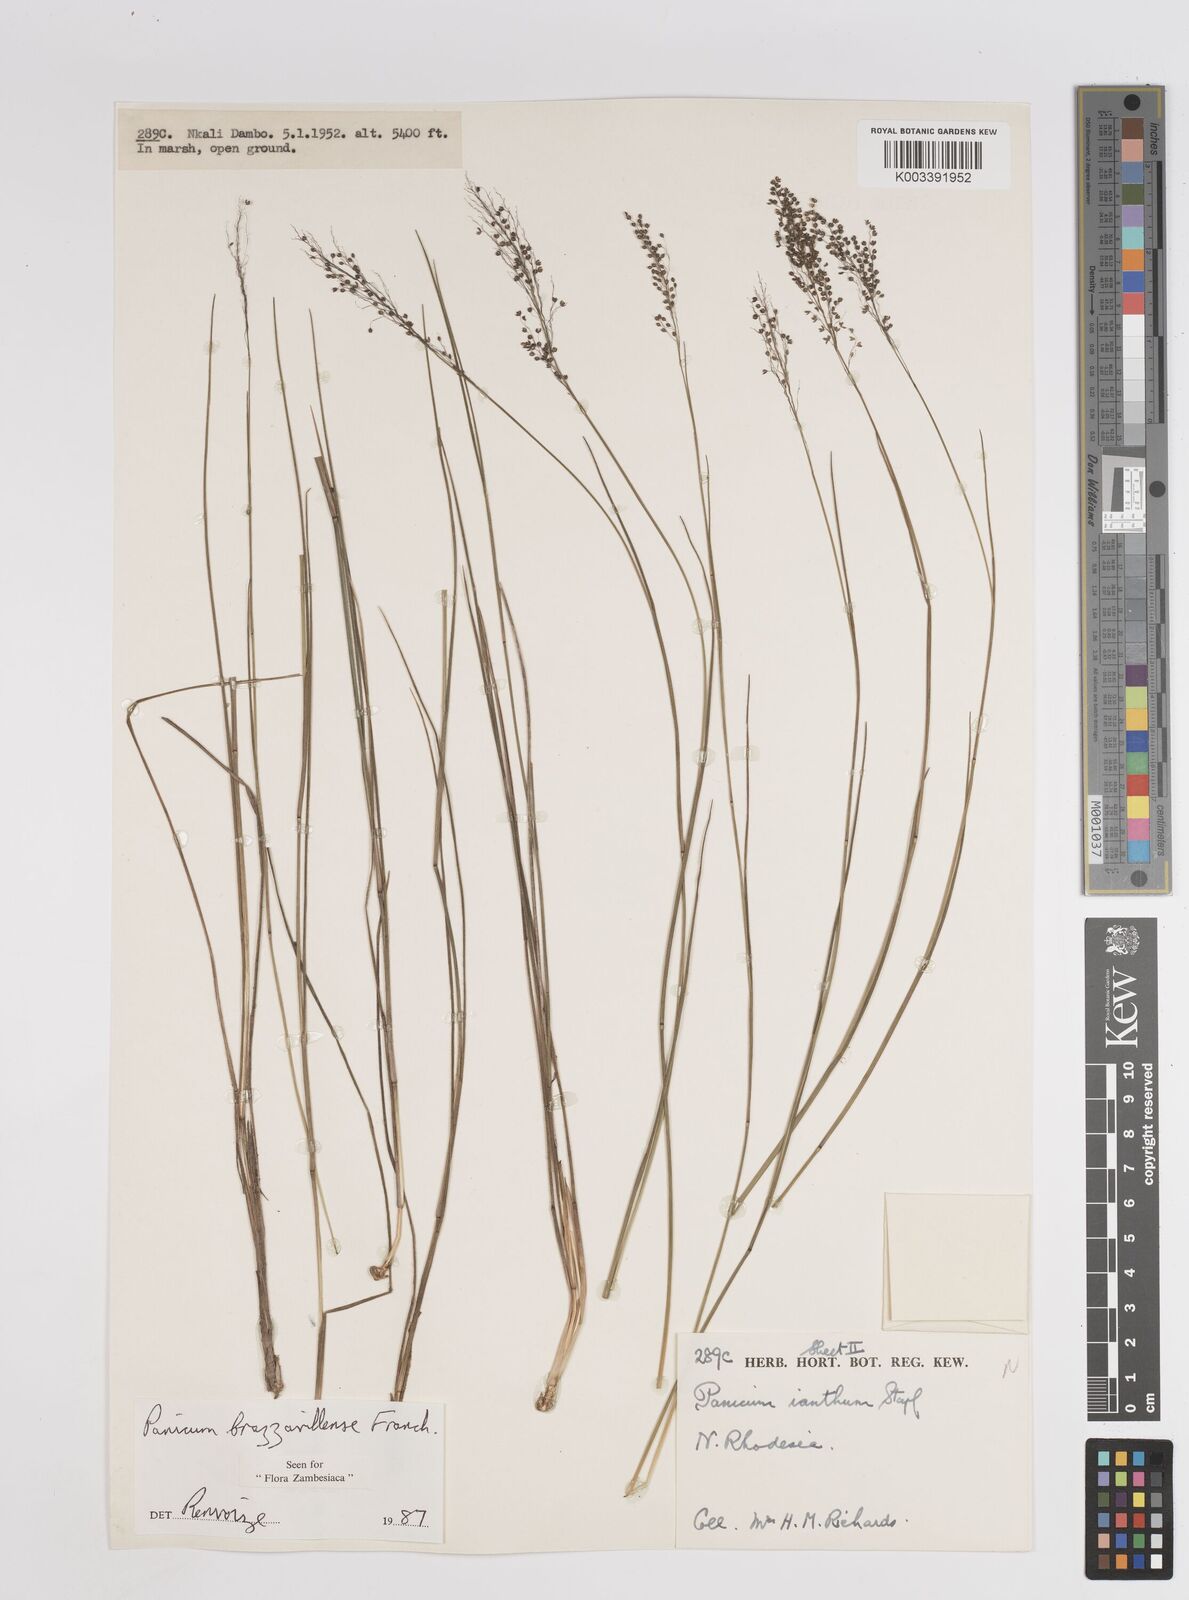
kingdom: Plantae
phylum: Tracheophyta
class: Liliopsida
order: Poales
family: Poaceae
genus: Trichanthecium
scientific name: Trichanthecium brazzavillense
